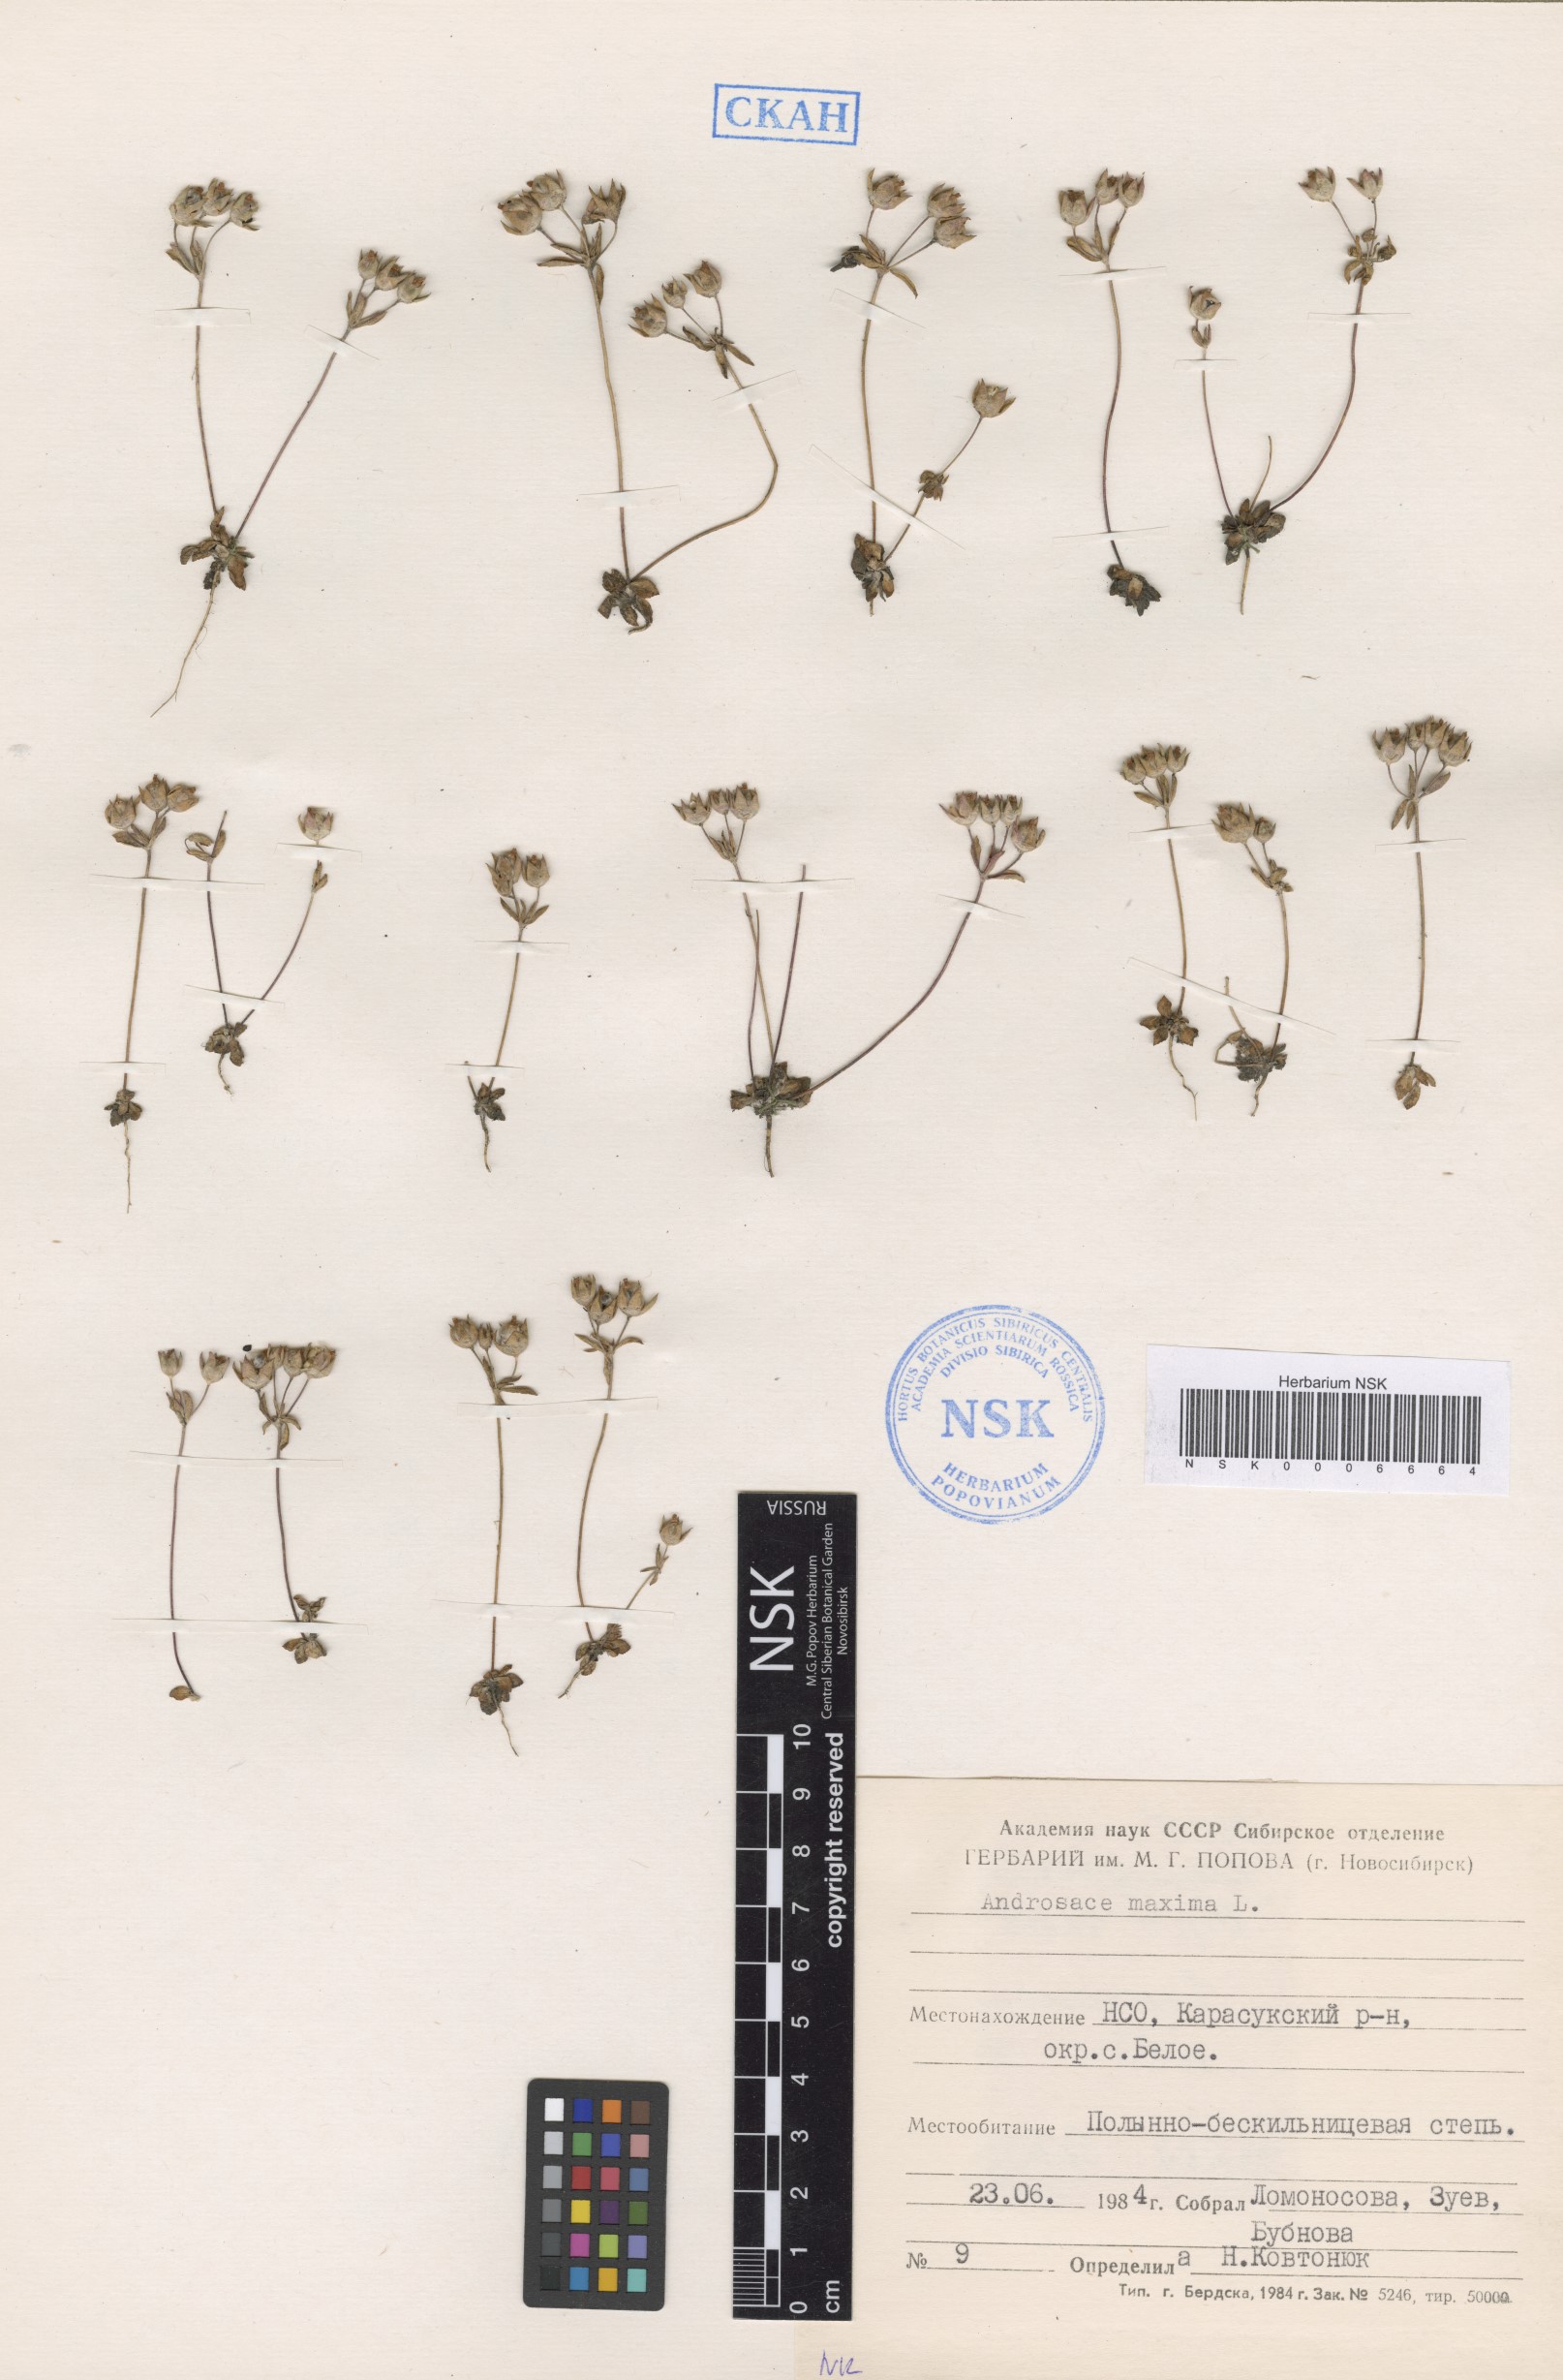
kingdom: Plantae
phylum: Tracheophyta
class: Magnoliopsida
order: Ericales
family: Primulaceae
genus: Androsace
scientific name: Androsace maxima
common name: Annual androsace
